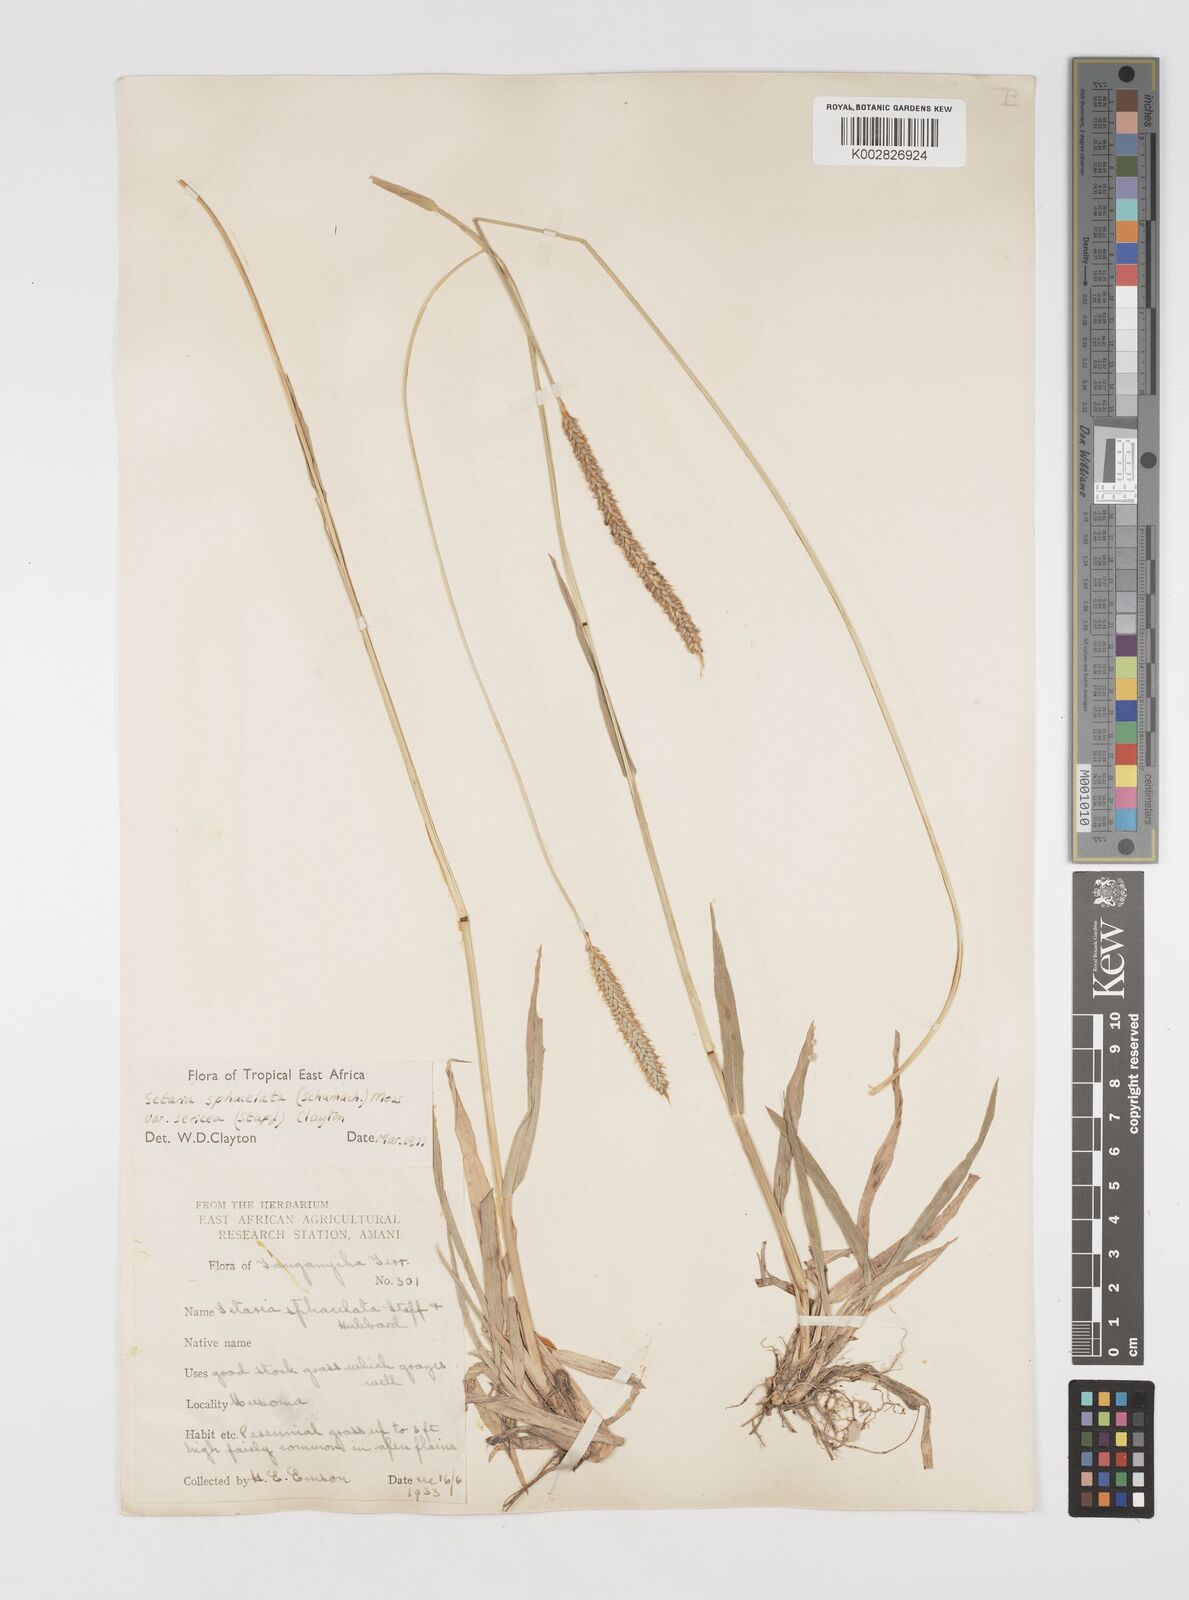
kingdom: Plantae
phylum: Tracheophyta
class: Liliopsida
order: Poales
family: Poaceae
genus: Setaria
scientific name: Setaria sphacelata
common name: African bristlegrass
